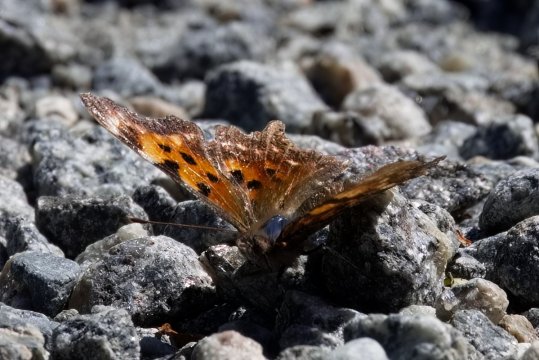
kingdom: Animalia
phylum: Arthropoda
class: Insecta
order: Lepidoptera
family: Nymphalidae
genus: Polygonia
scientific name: Polygonia faunus
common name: Green Comma
